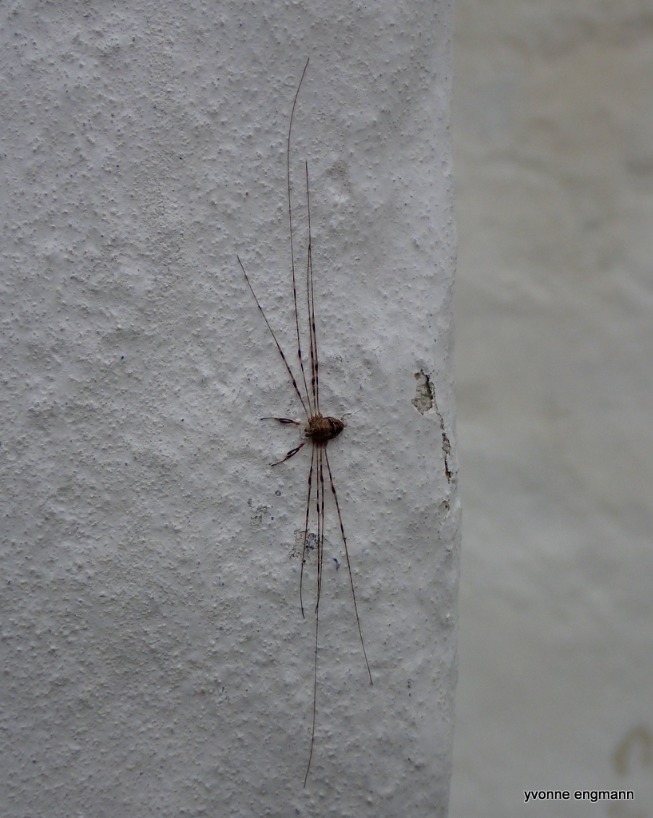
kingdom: Animalia
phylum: Arthropoda
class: Arachnida
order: Opiliones
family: Phalangiidae
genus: Dicranopalpus
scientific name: Dicranopalpus ramosus
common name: Gaffelmejer
